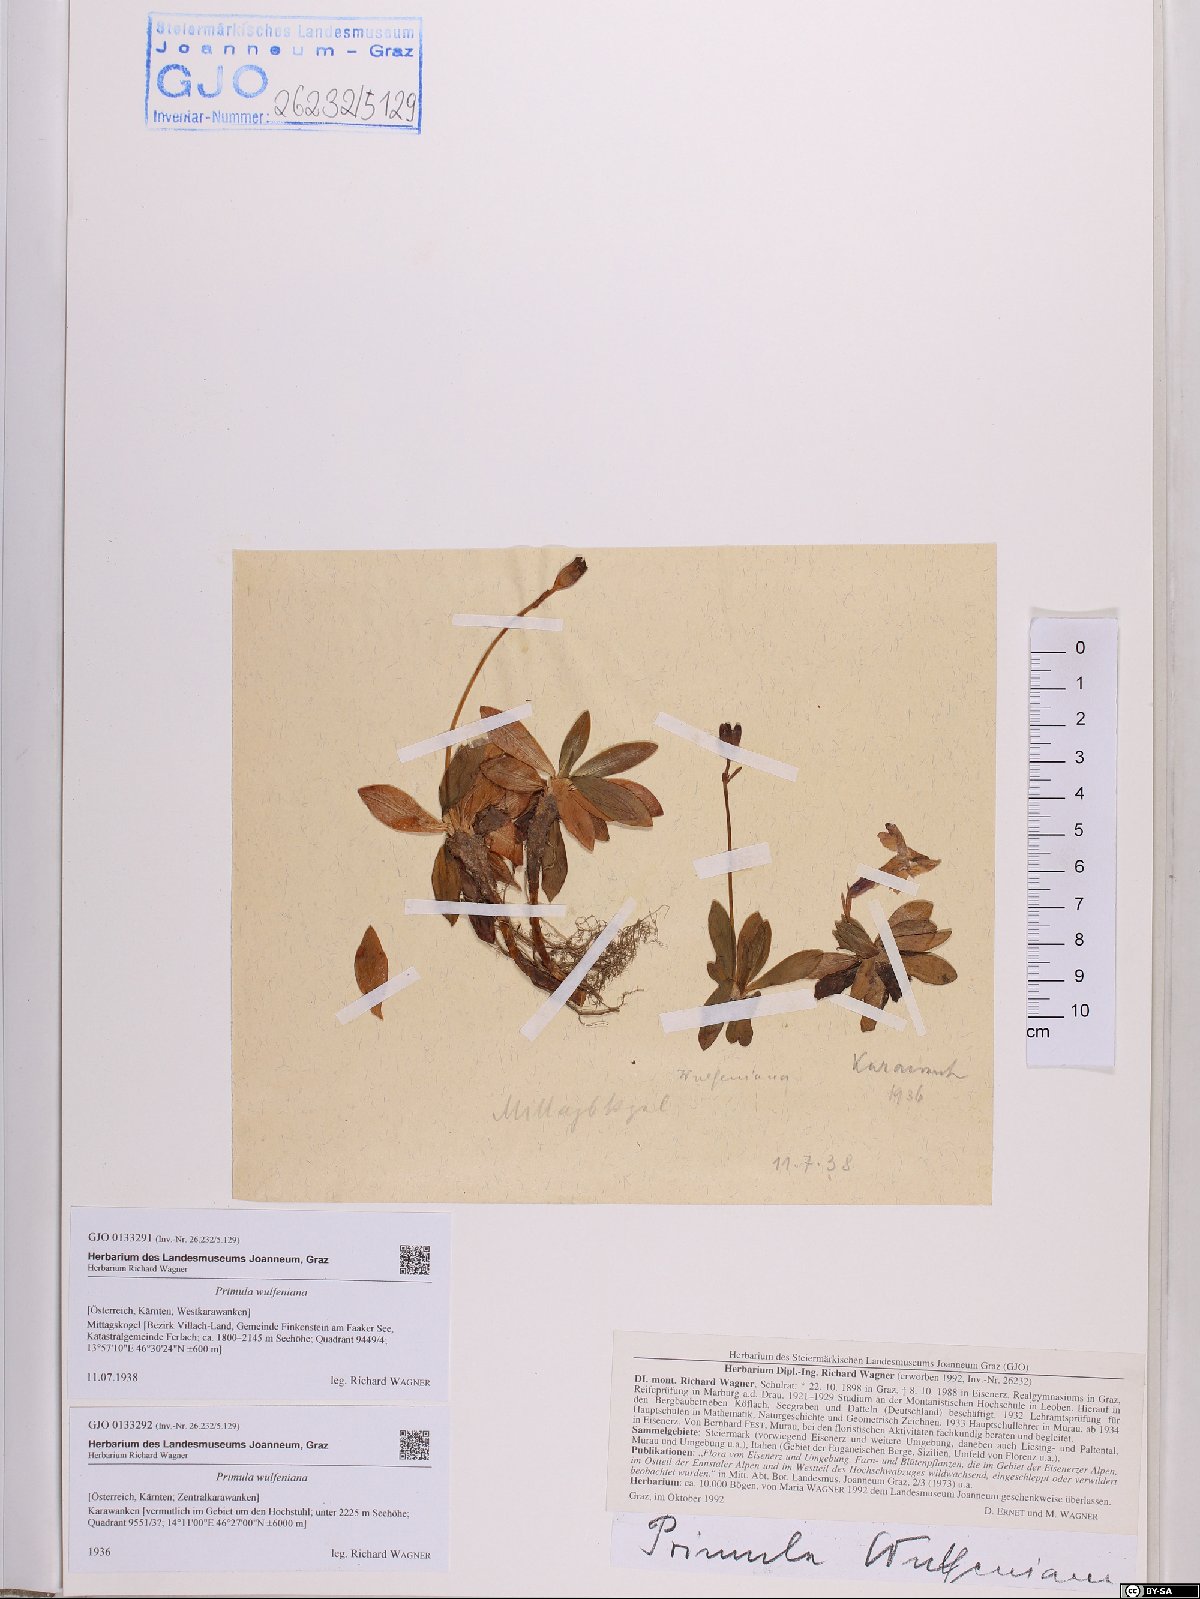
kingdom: Plantae
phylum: Tracheophyta
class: Magnoliopsida
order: Ericales
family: Primulaceae
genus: Primula
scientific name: Primula wulfeniana
